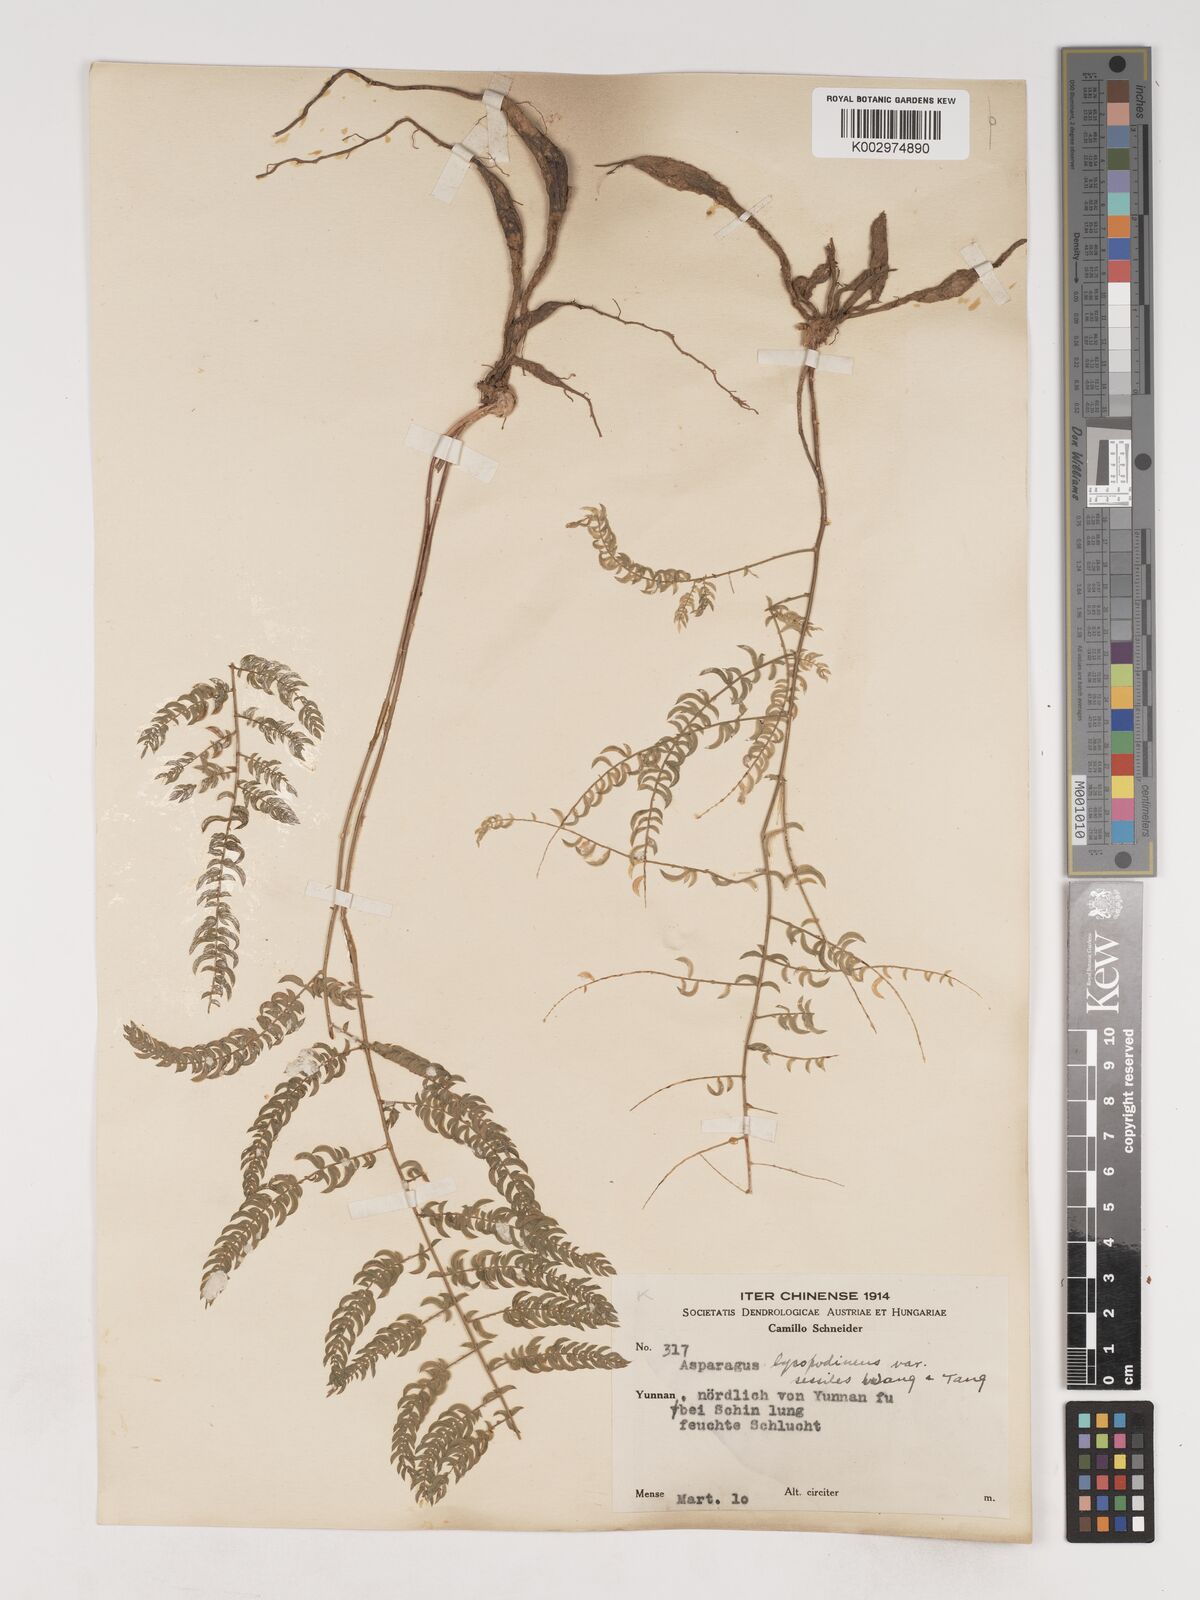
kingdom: Plantae
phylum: Tracheophyta
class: Liliopsida
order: Asparagales
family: Asparagaceae
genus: Asparagus
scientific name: Asparagus lycopodineus
